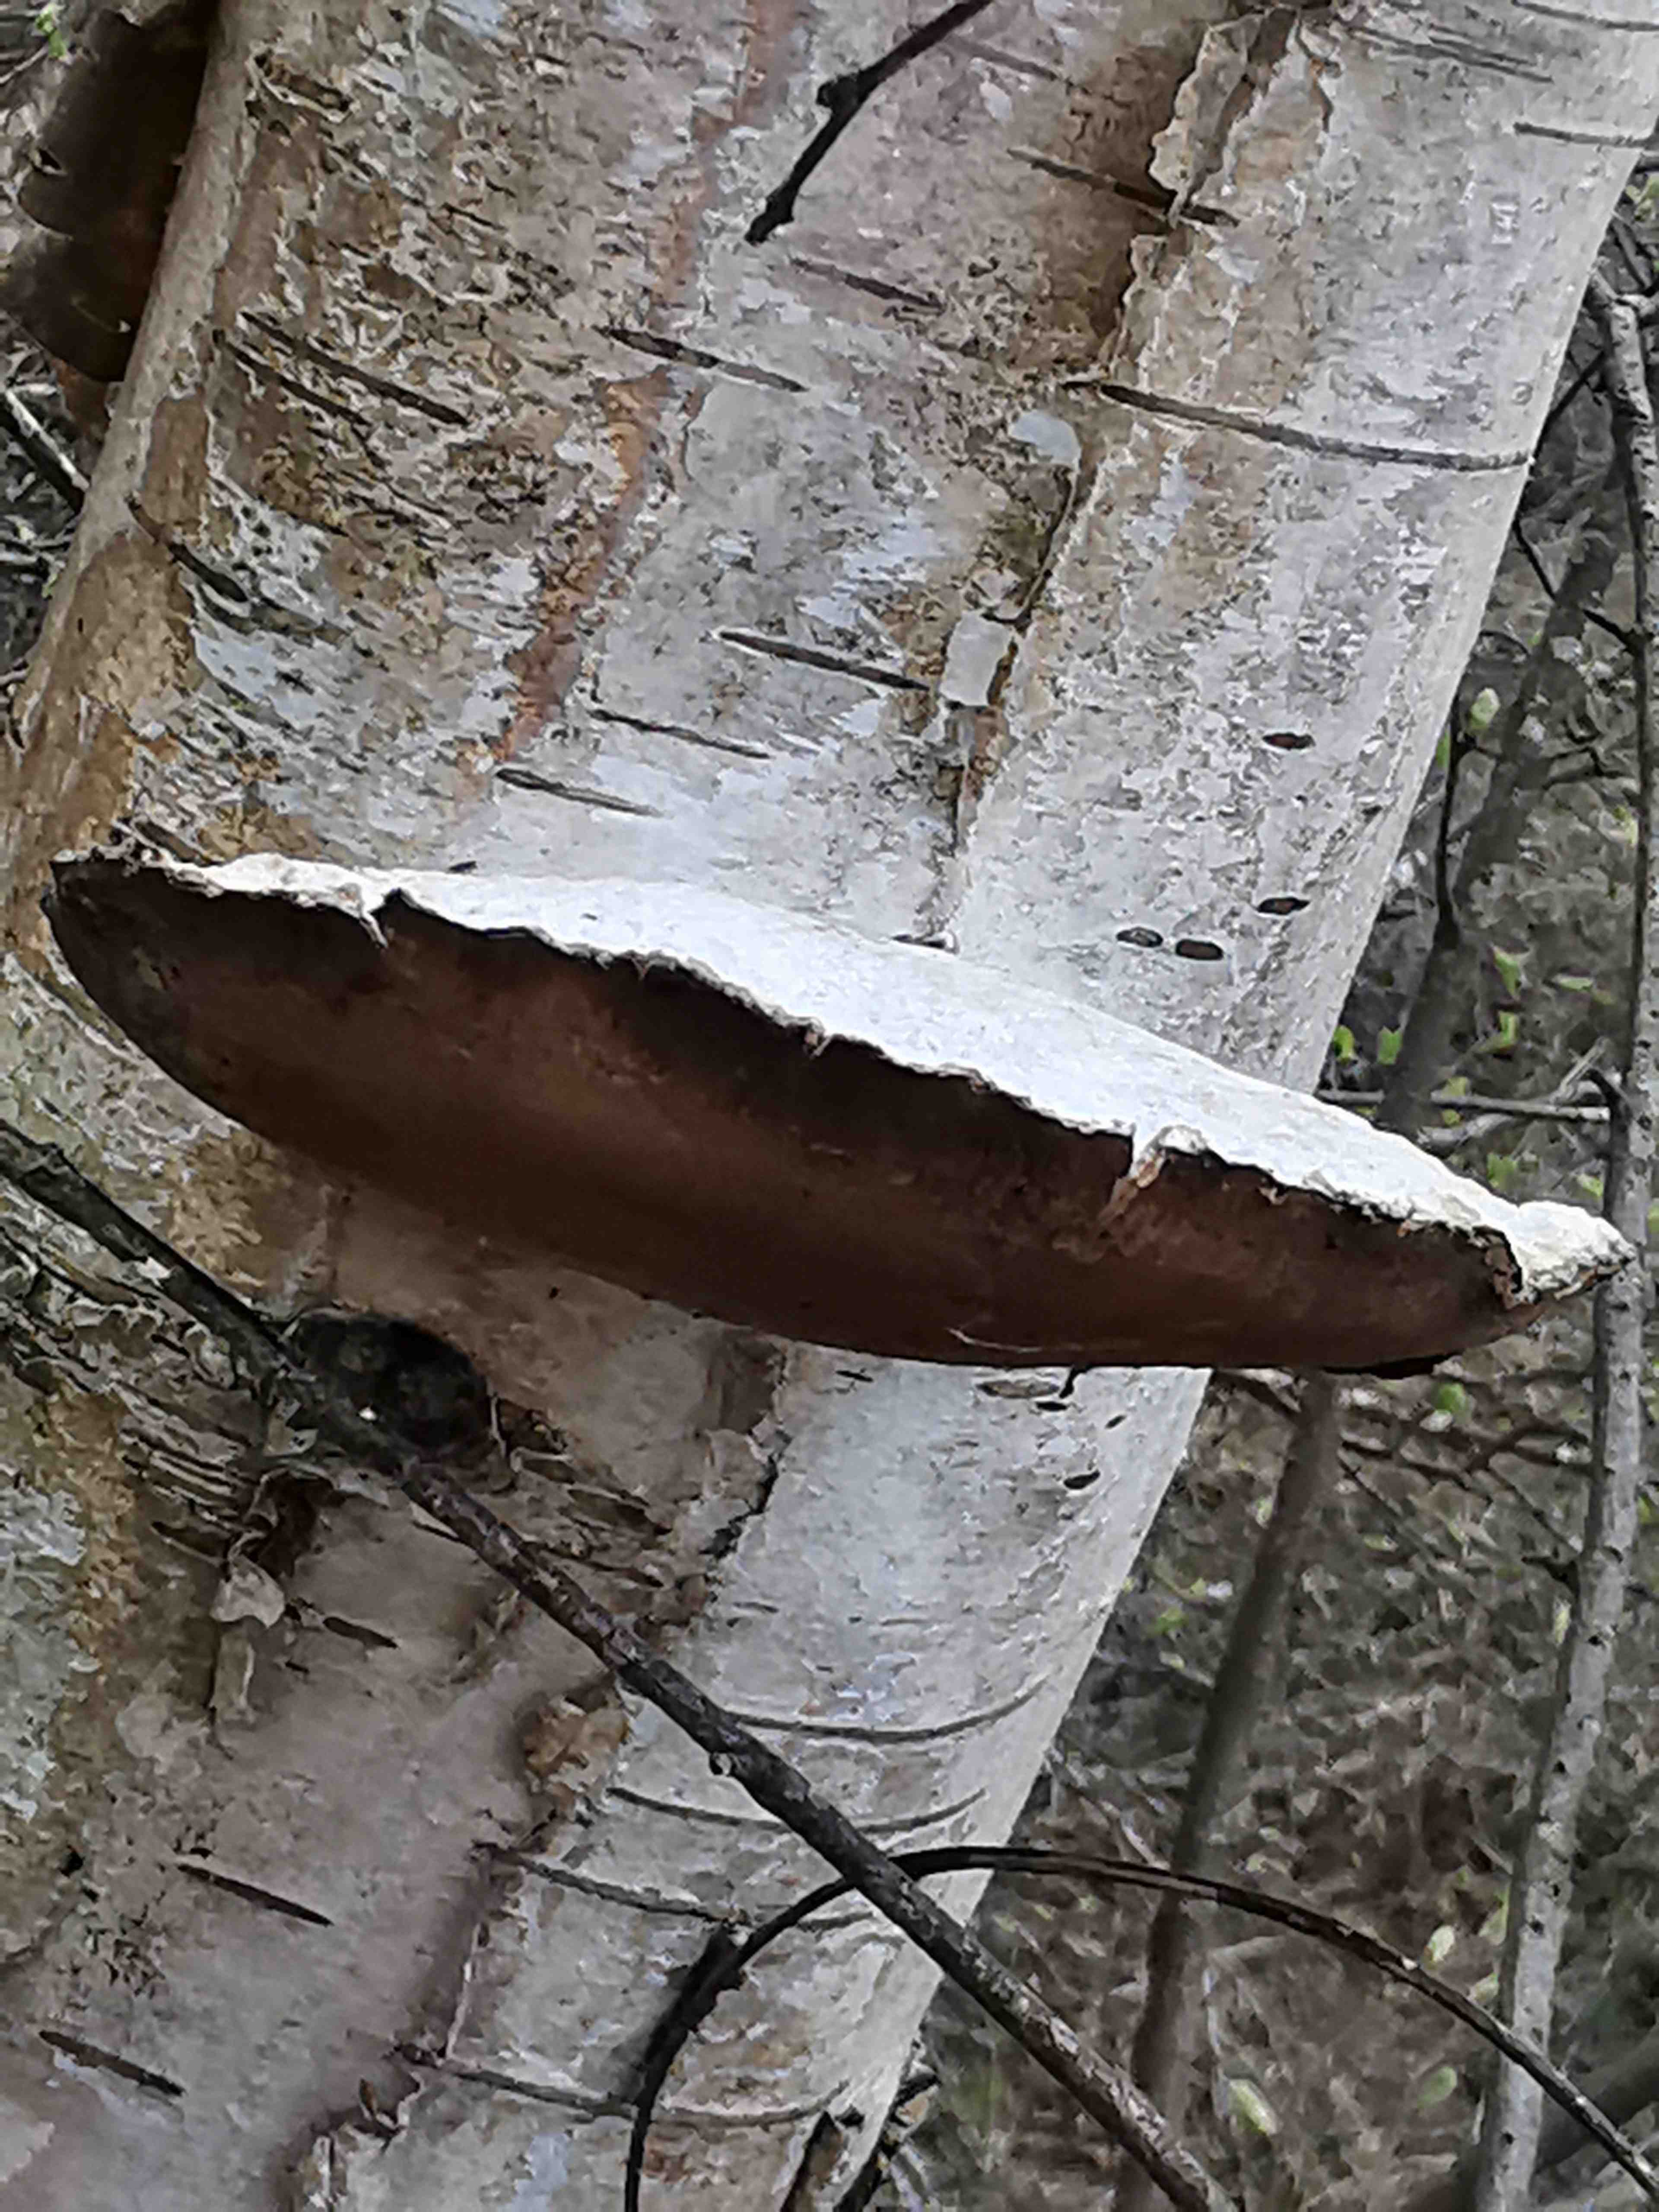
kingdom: Fungi
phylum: Basidiomycota
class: Agaricomycetes
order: Polyporales
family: Fomitopsidaceae
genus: Fomitopsis
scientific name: Fomitopsis betulina
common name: birkeporesvamp
